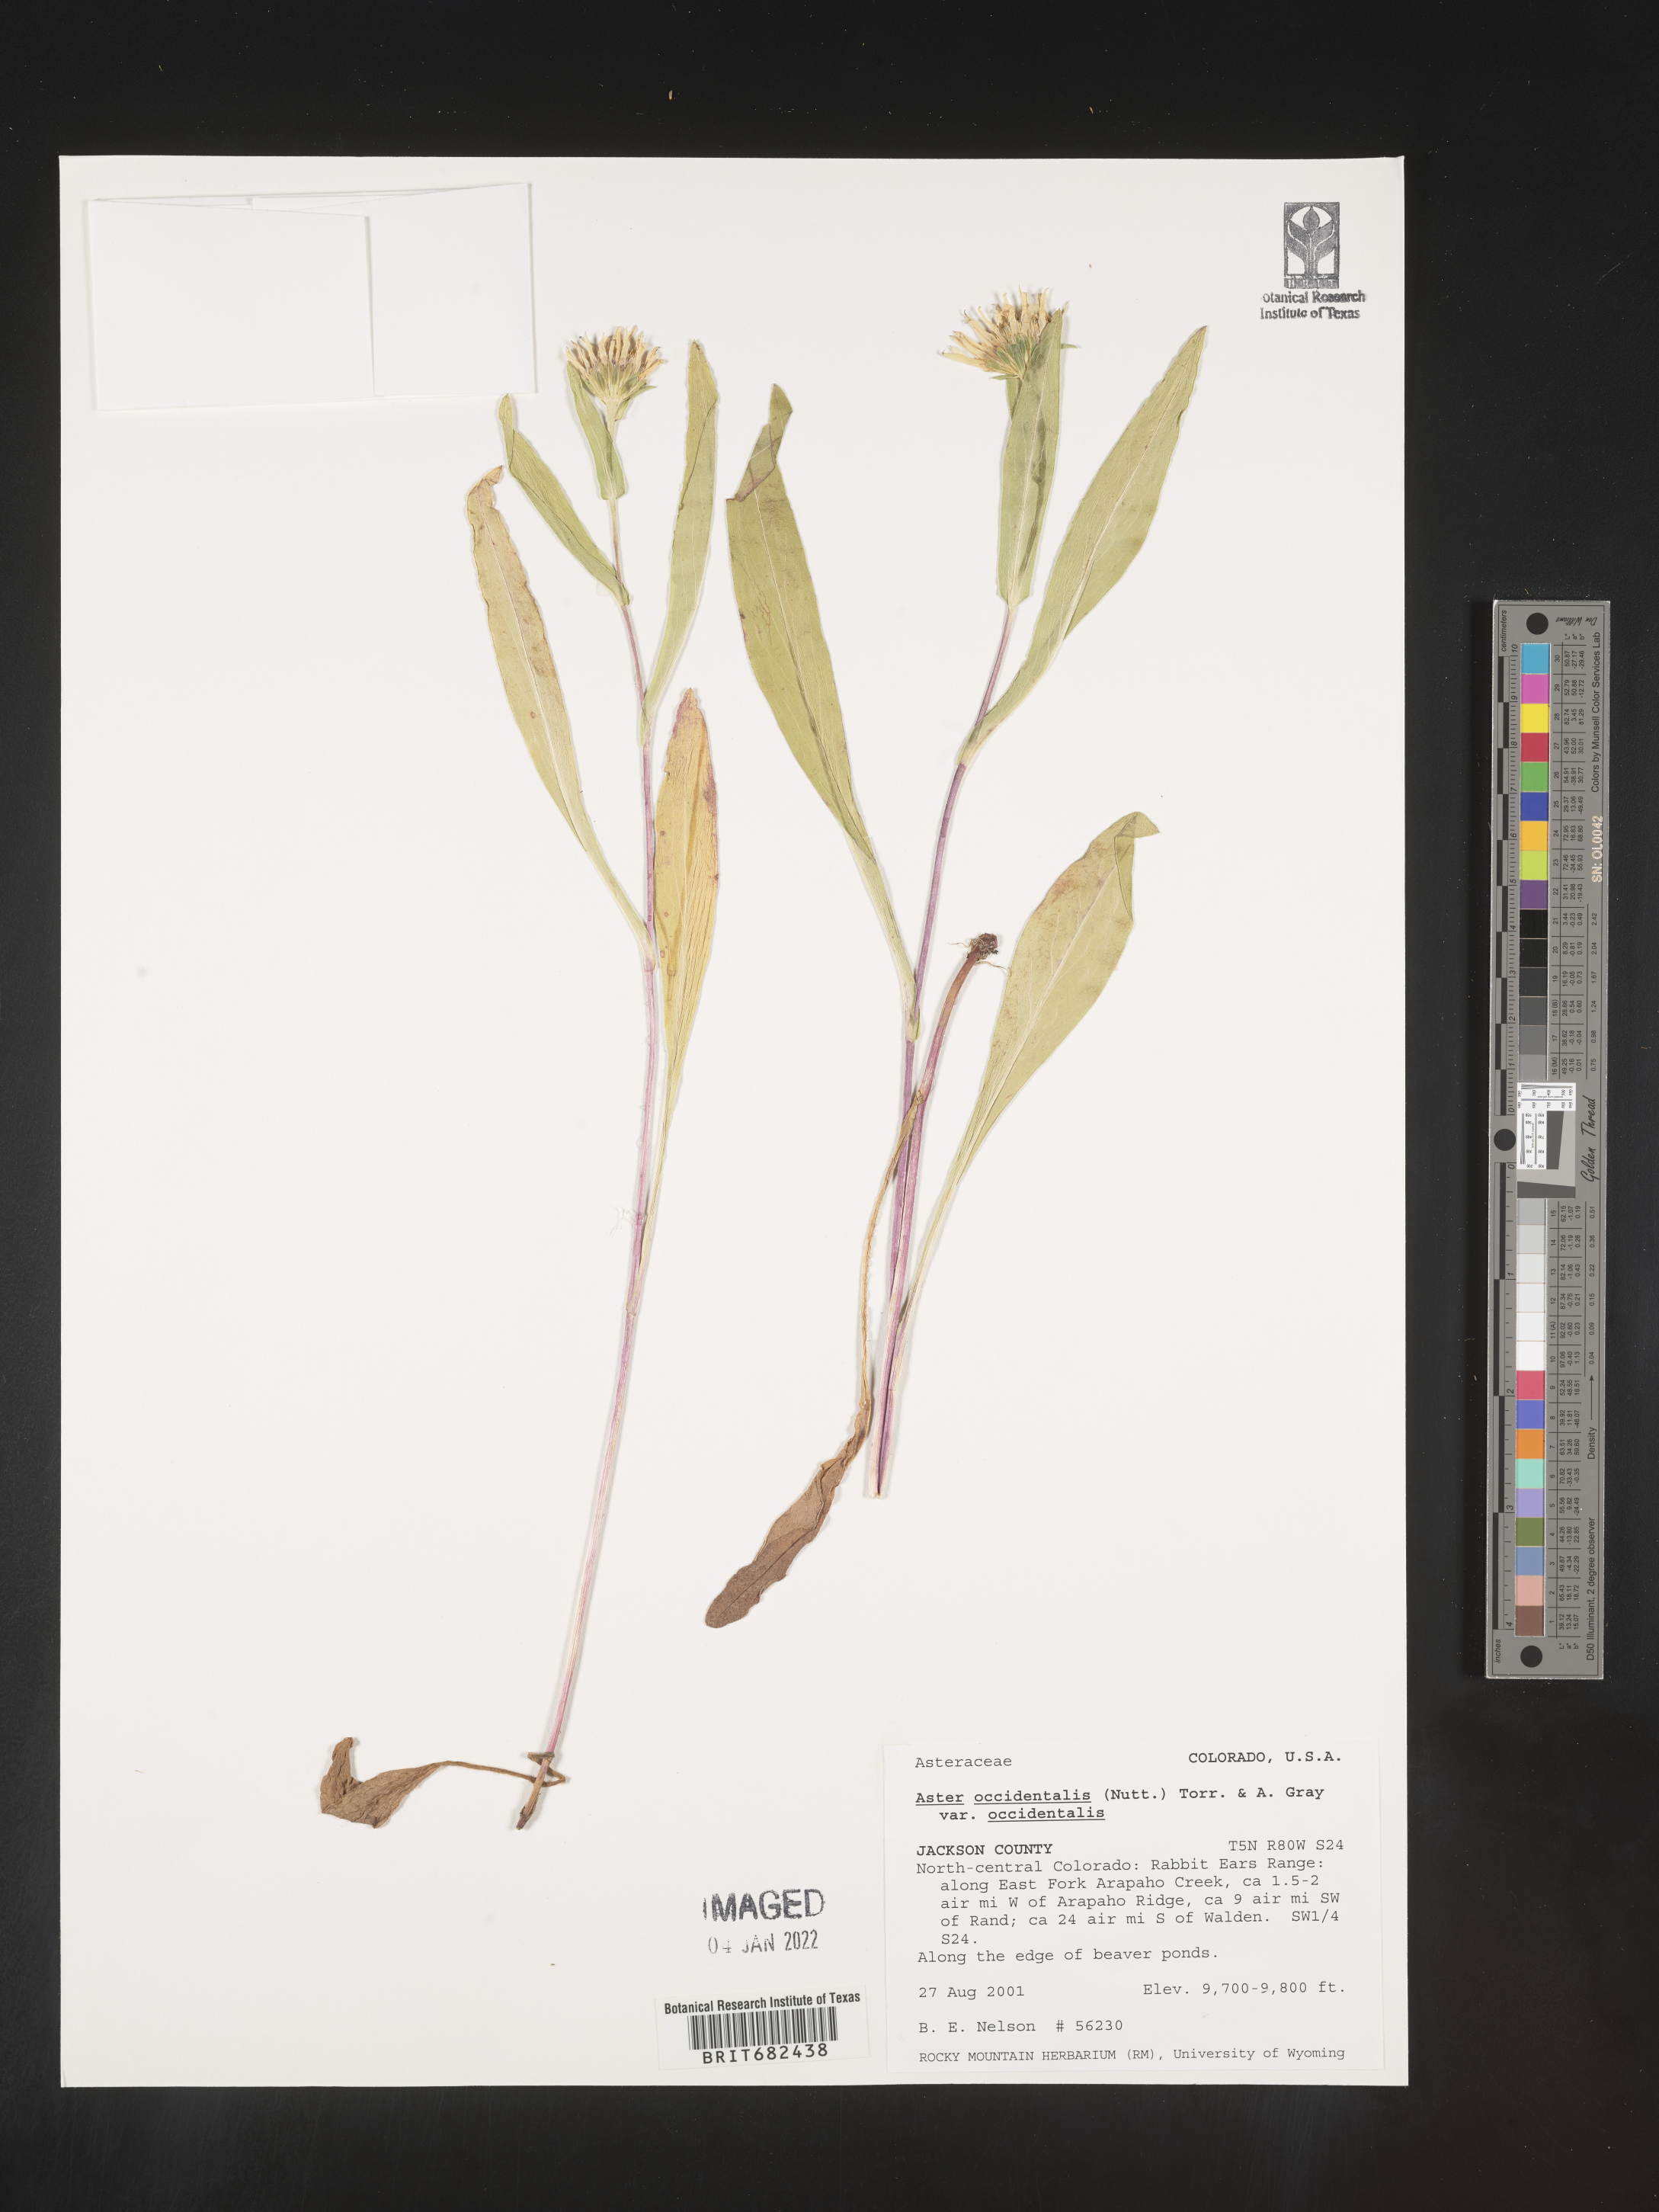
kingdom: Plantae
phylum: Tracheophyta
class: Magnoliopsida
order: Asterales
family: Asteraceae
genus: Aster
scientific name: Aster
